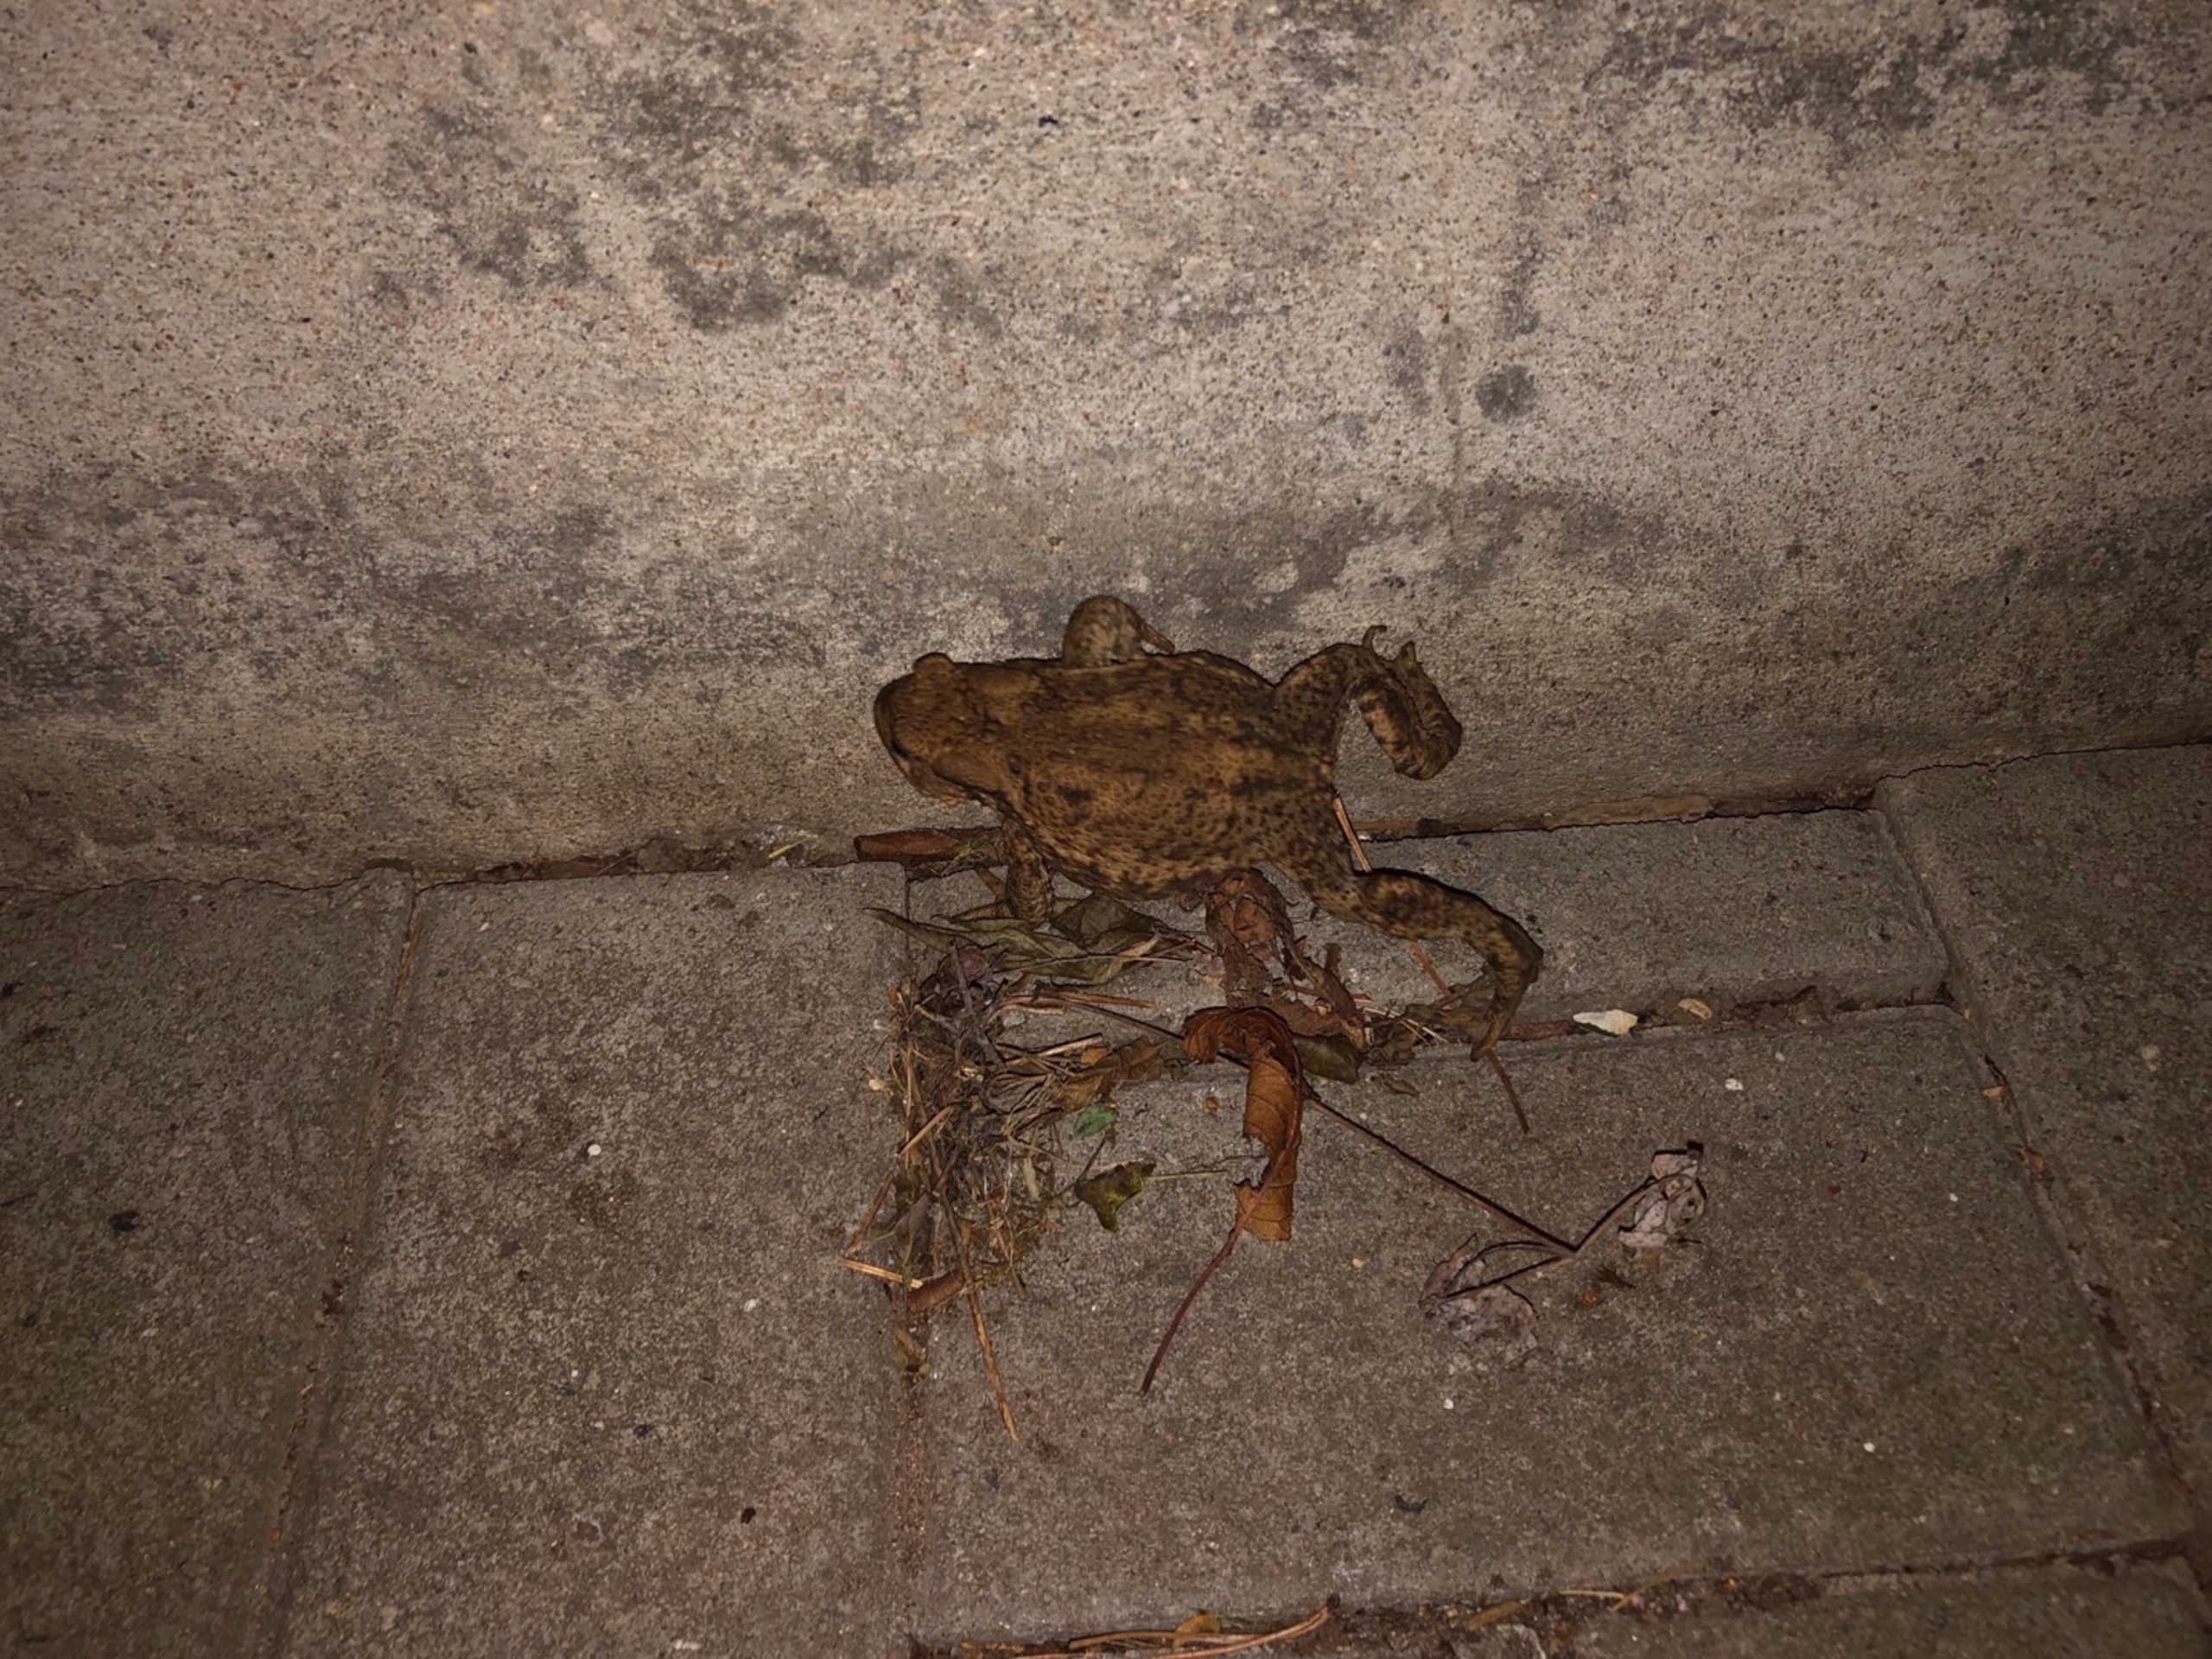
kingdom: Animalia
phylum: Chordata
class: Amphibia
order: Anura
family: Bufonidae
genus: Bufo
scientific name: Bufo bufo
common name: Skrubtudse
